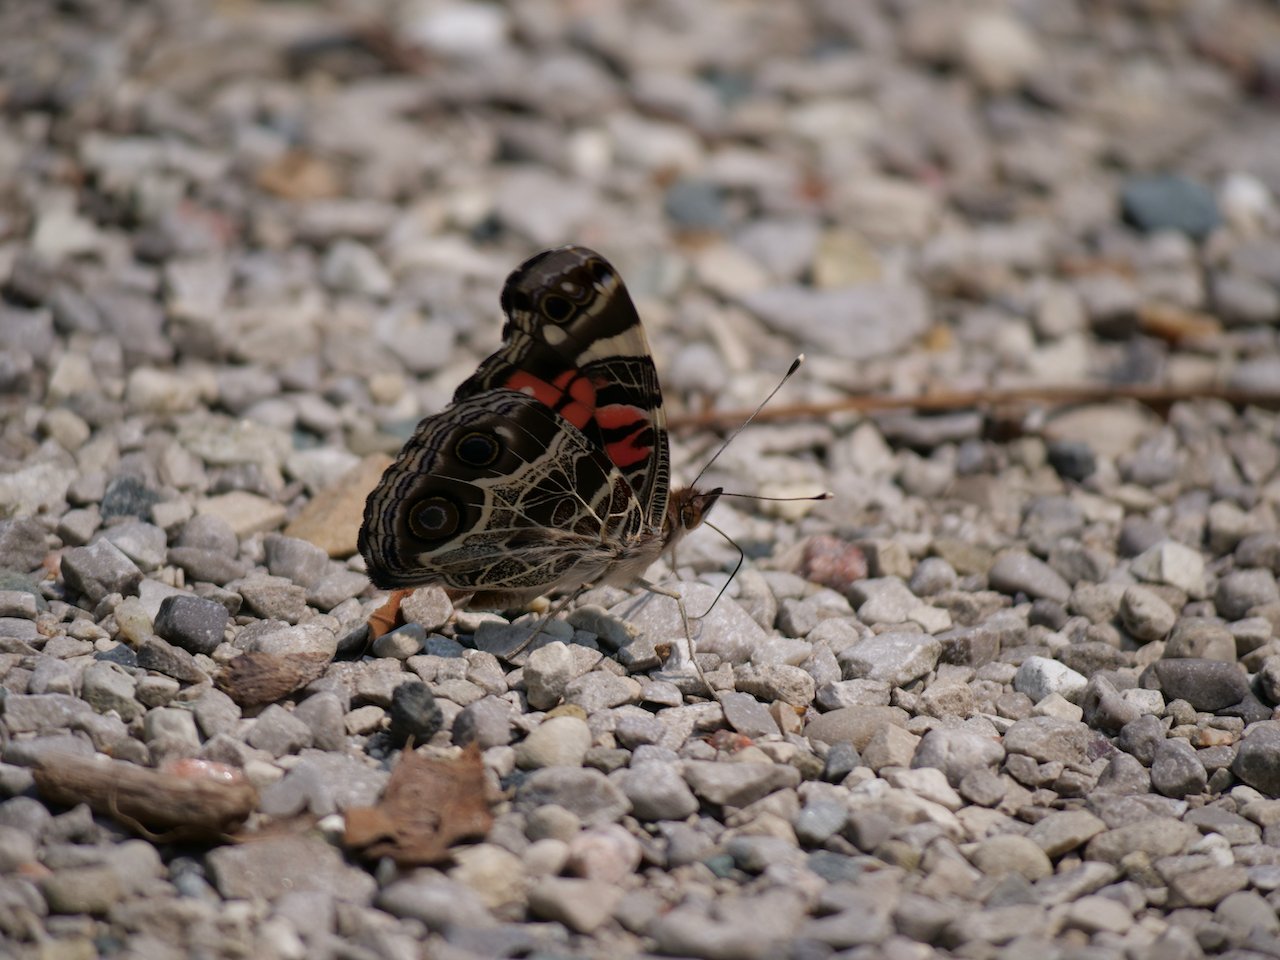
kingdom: Animalia
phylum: Arthropoda
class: Insecta
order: Lepidoptera
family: Nymphalidae
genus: Vanessa
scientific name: Vanessa virginiensis
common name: American Lady
